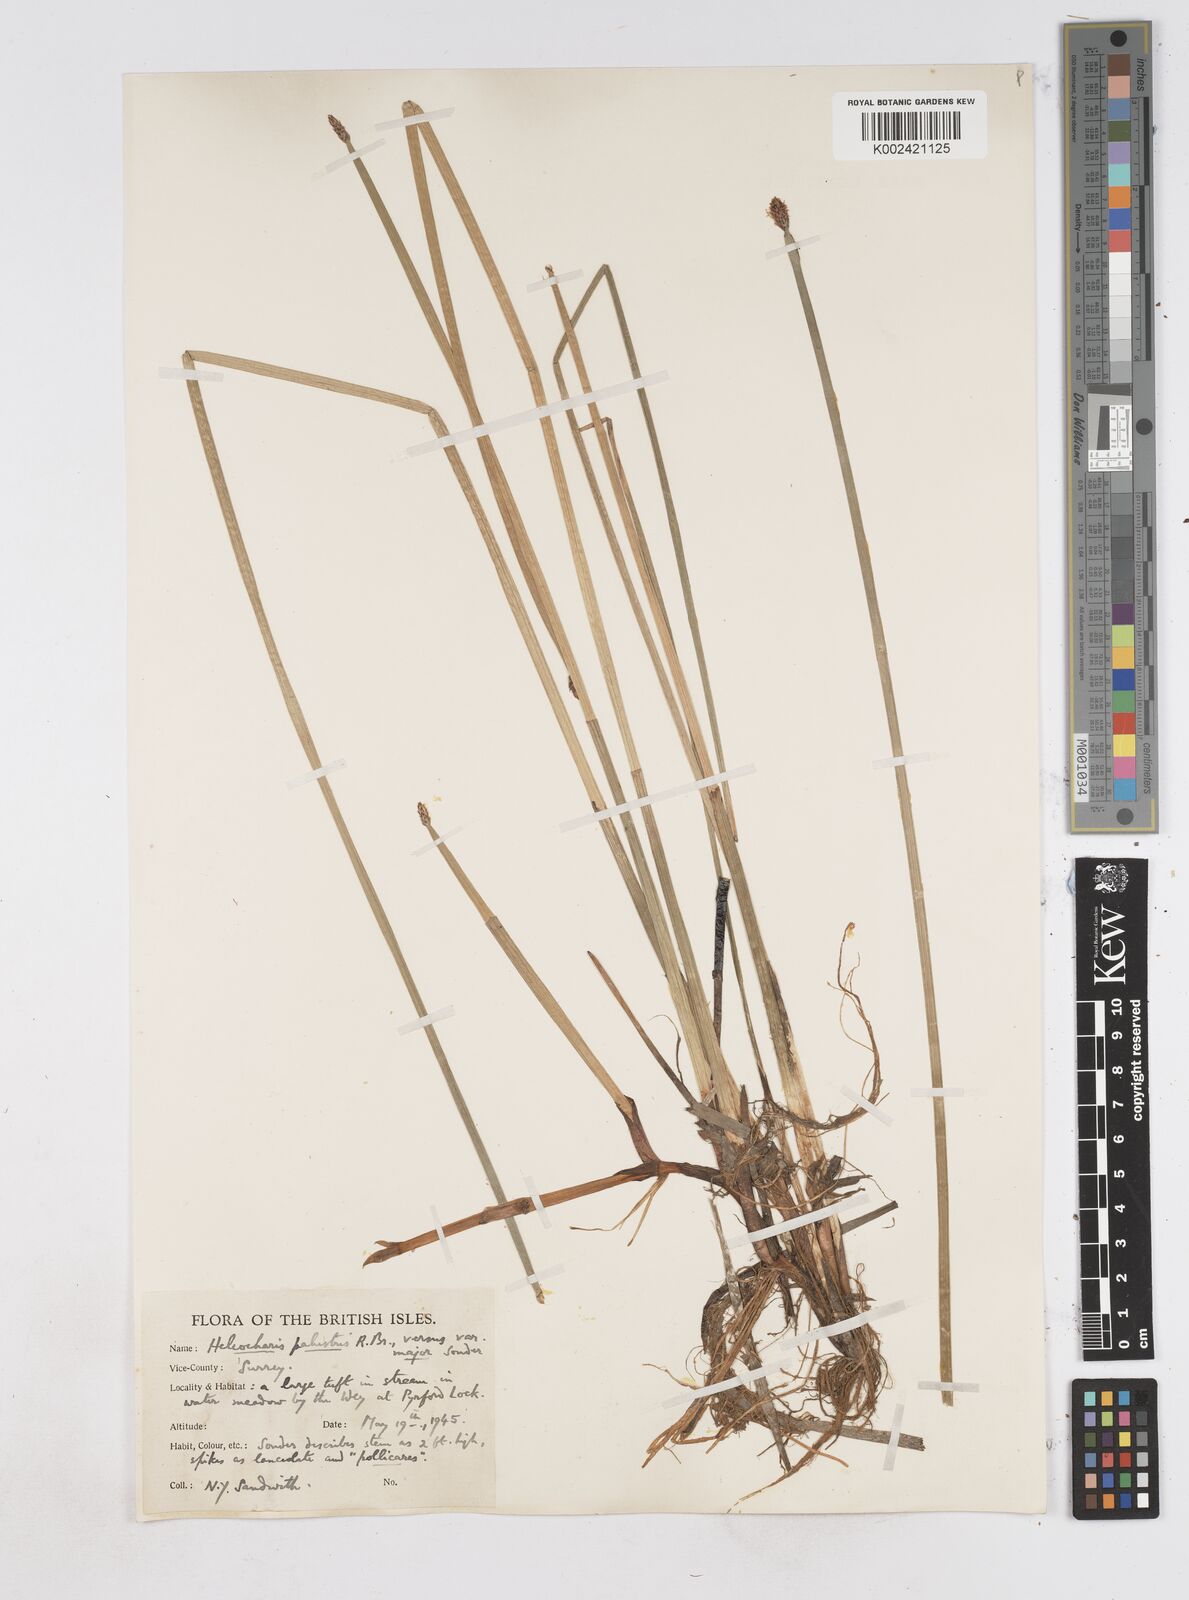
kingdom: Plantae
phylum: Tracheophyta
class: Liliopsida
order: Poales
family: Cyperaceae
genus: Eleocharis
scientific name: Eleocharis palustris
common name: Common spike-rush
